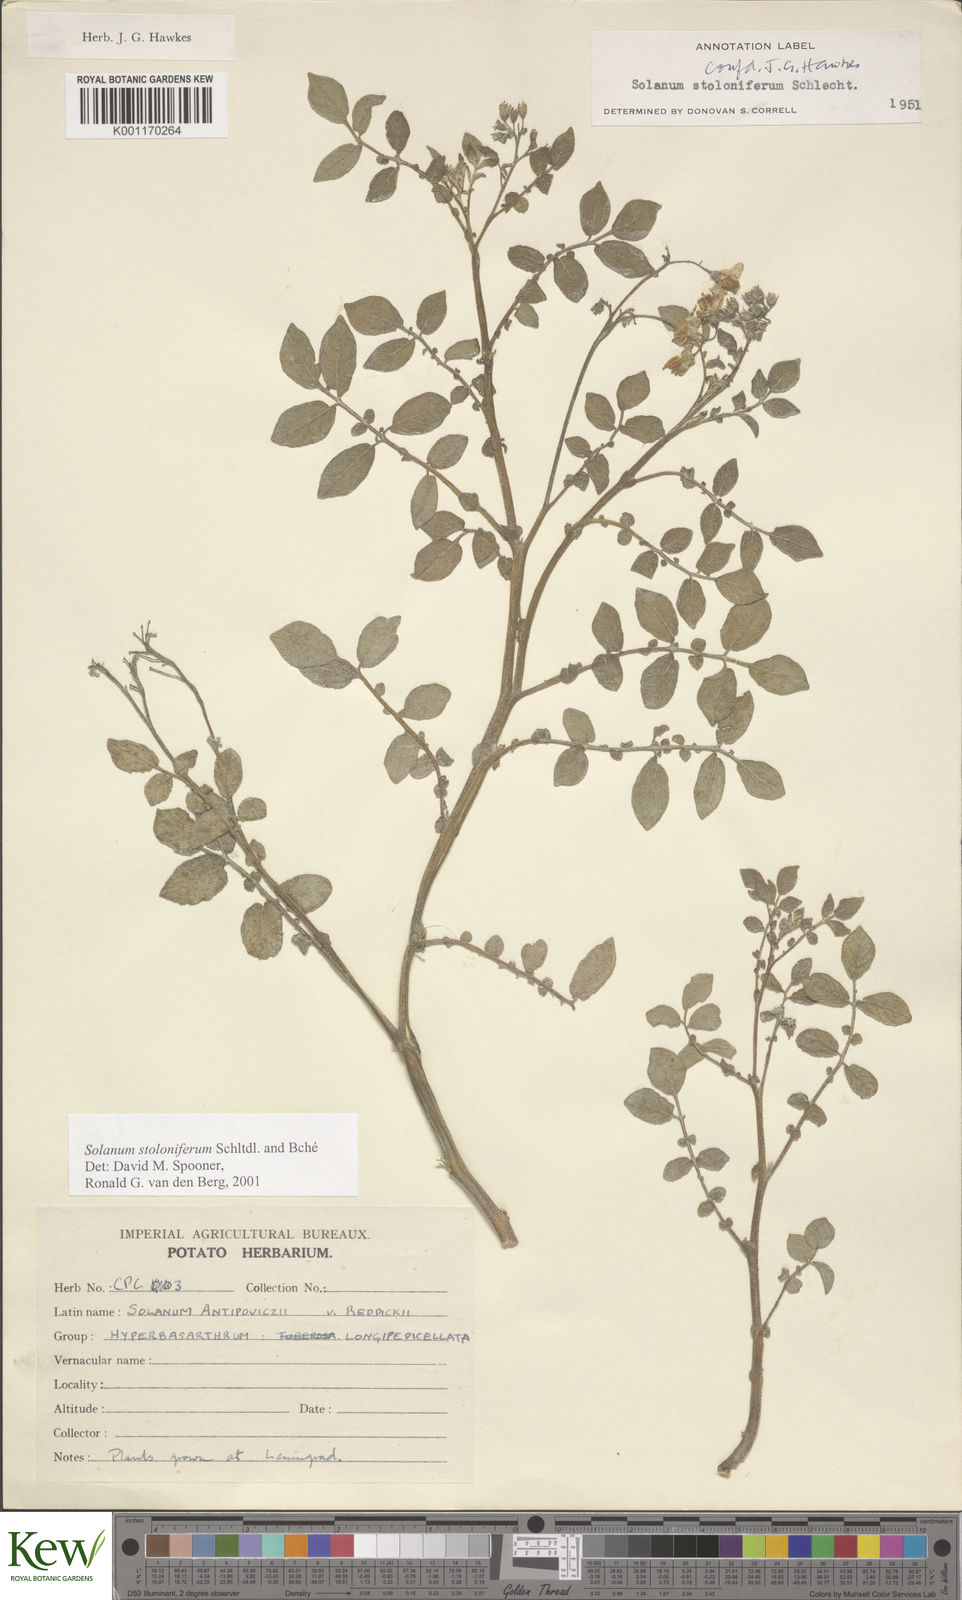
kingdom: Plantae
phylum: Tracheophyta
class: Magnoliopsida
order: Solanales
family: Solanaceae
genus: Solanum
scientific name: Solanum stoloniferum
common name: Fendler's nighshade
